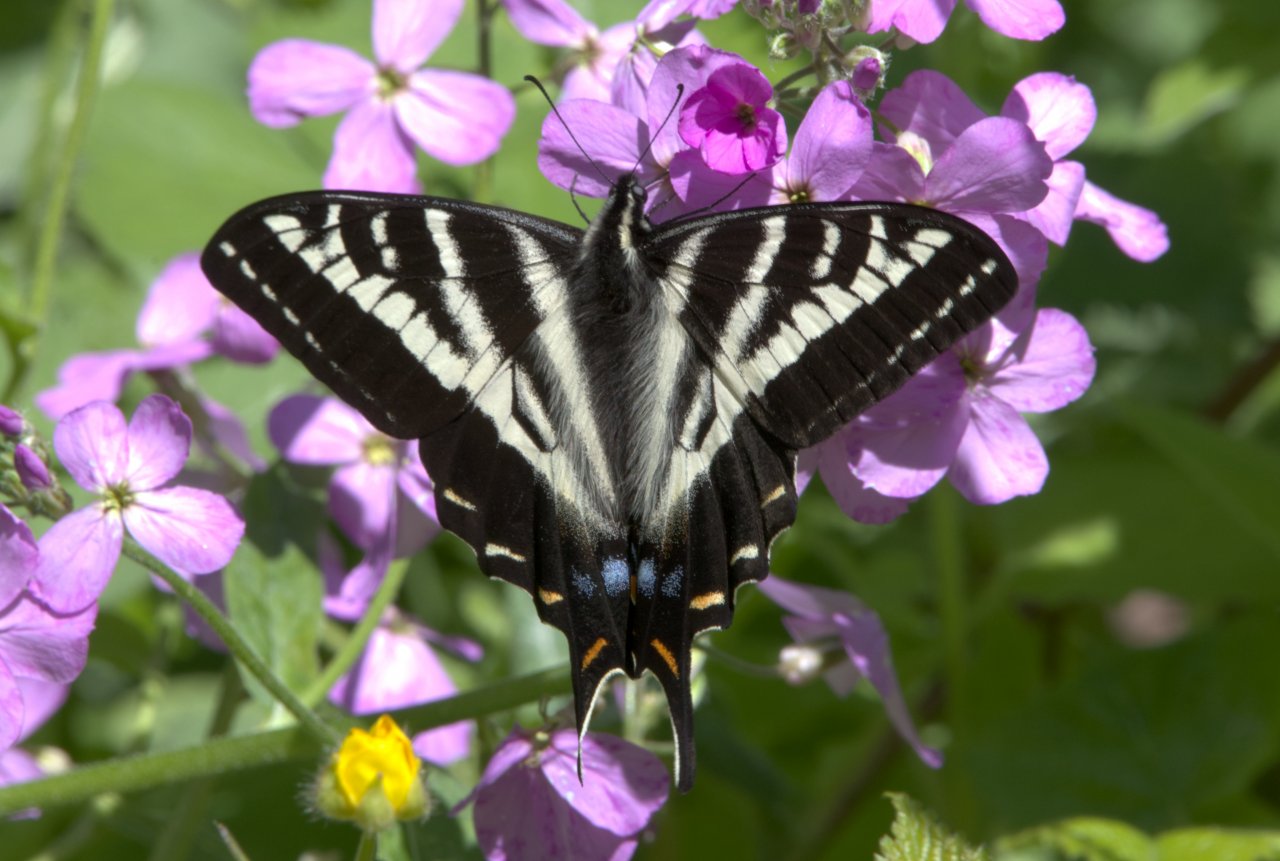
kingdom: Animalia
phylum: Arthropoda
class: Insecta
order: Lepidoptera
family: Papilionidae
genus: Pterourus
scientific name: Pterourus eurymedon
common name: Pale Swallowtail
